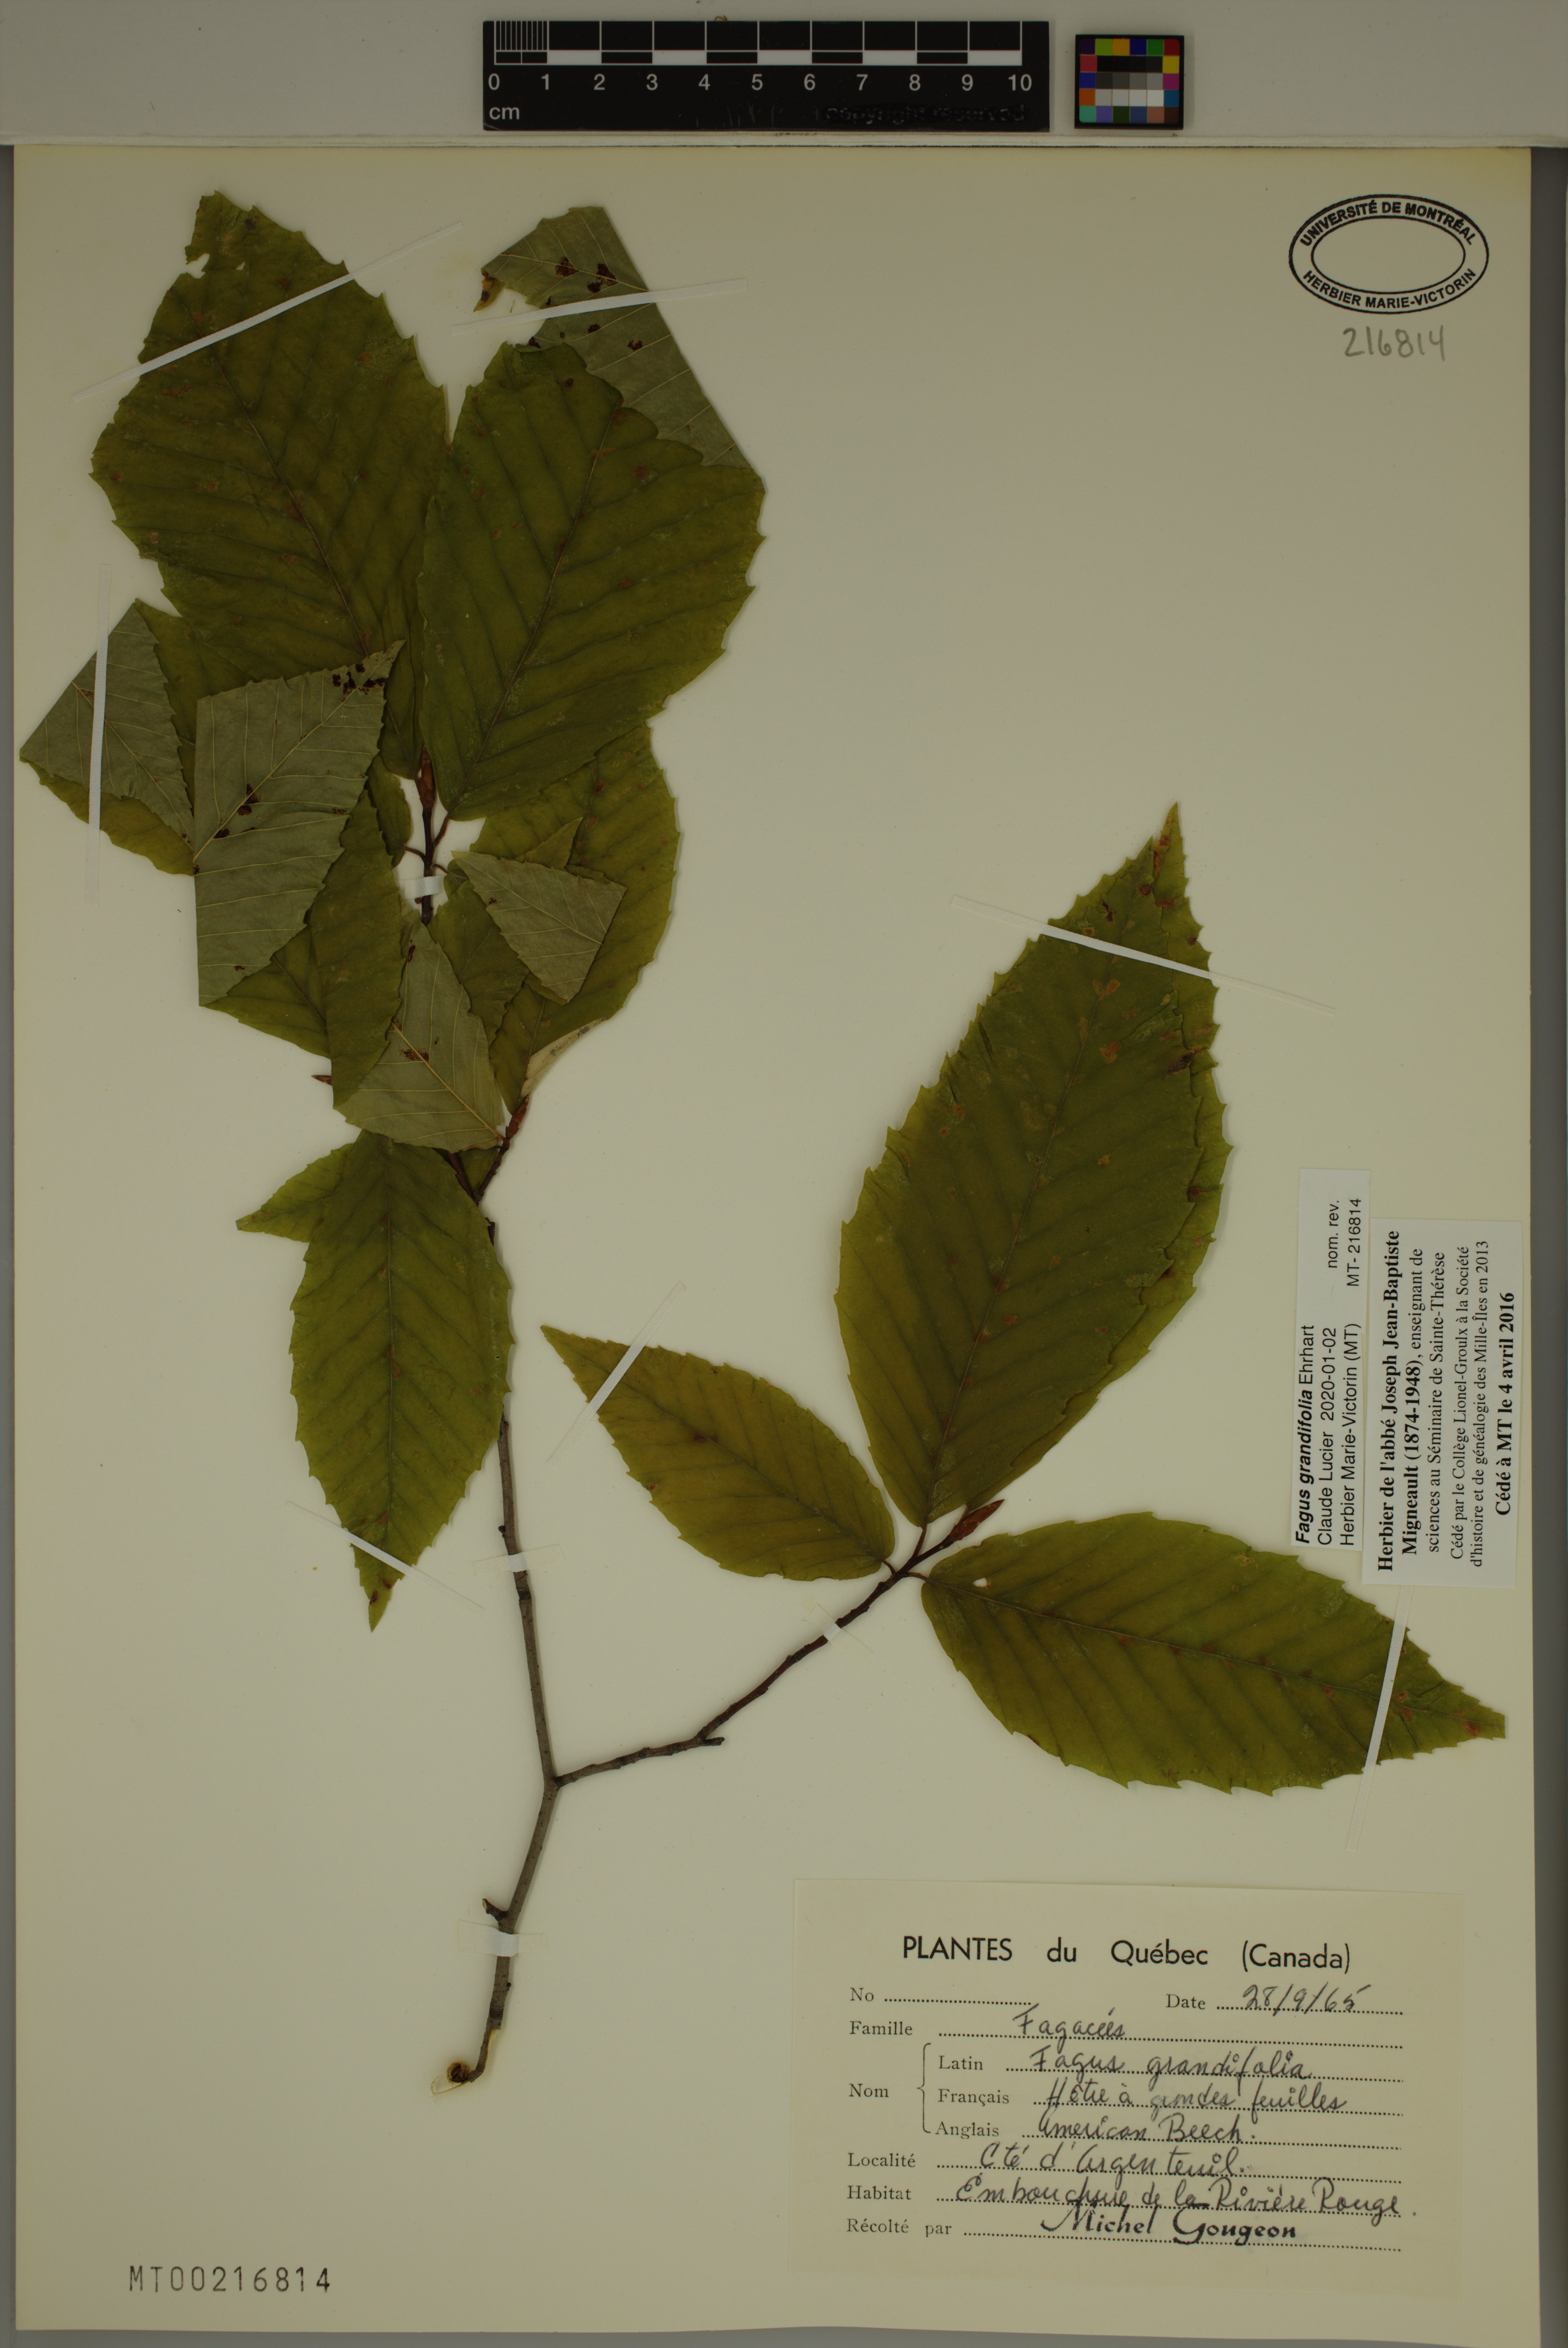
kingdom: Plantae
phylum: Tracheophyta
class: Magnoliopsida
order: Fagales
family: Fagaceae
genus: Fagus
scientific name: Fagus grandifolia
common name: American beech
